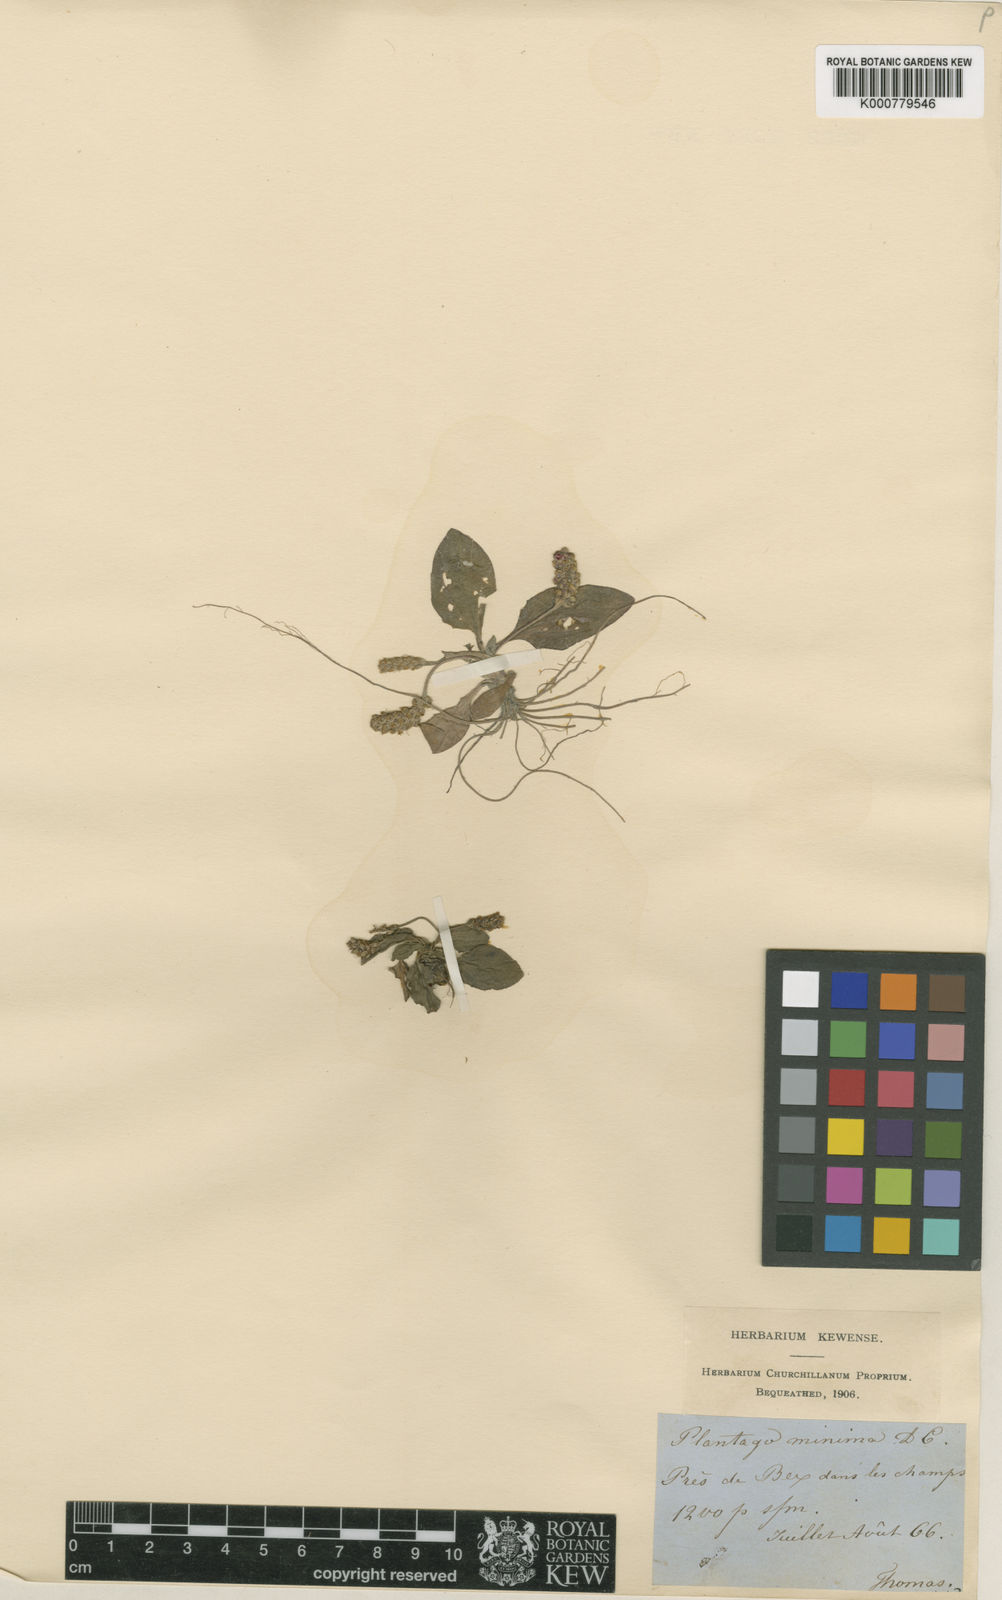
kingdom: Plantae
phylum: Tracheophyta
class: Magnoliopsida
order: Lamiales
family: Plantaginaceae
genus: Plantago
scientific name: Plantago major
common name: Common plantain
